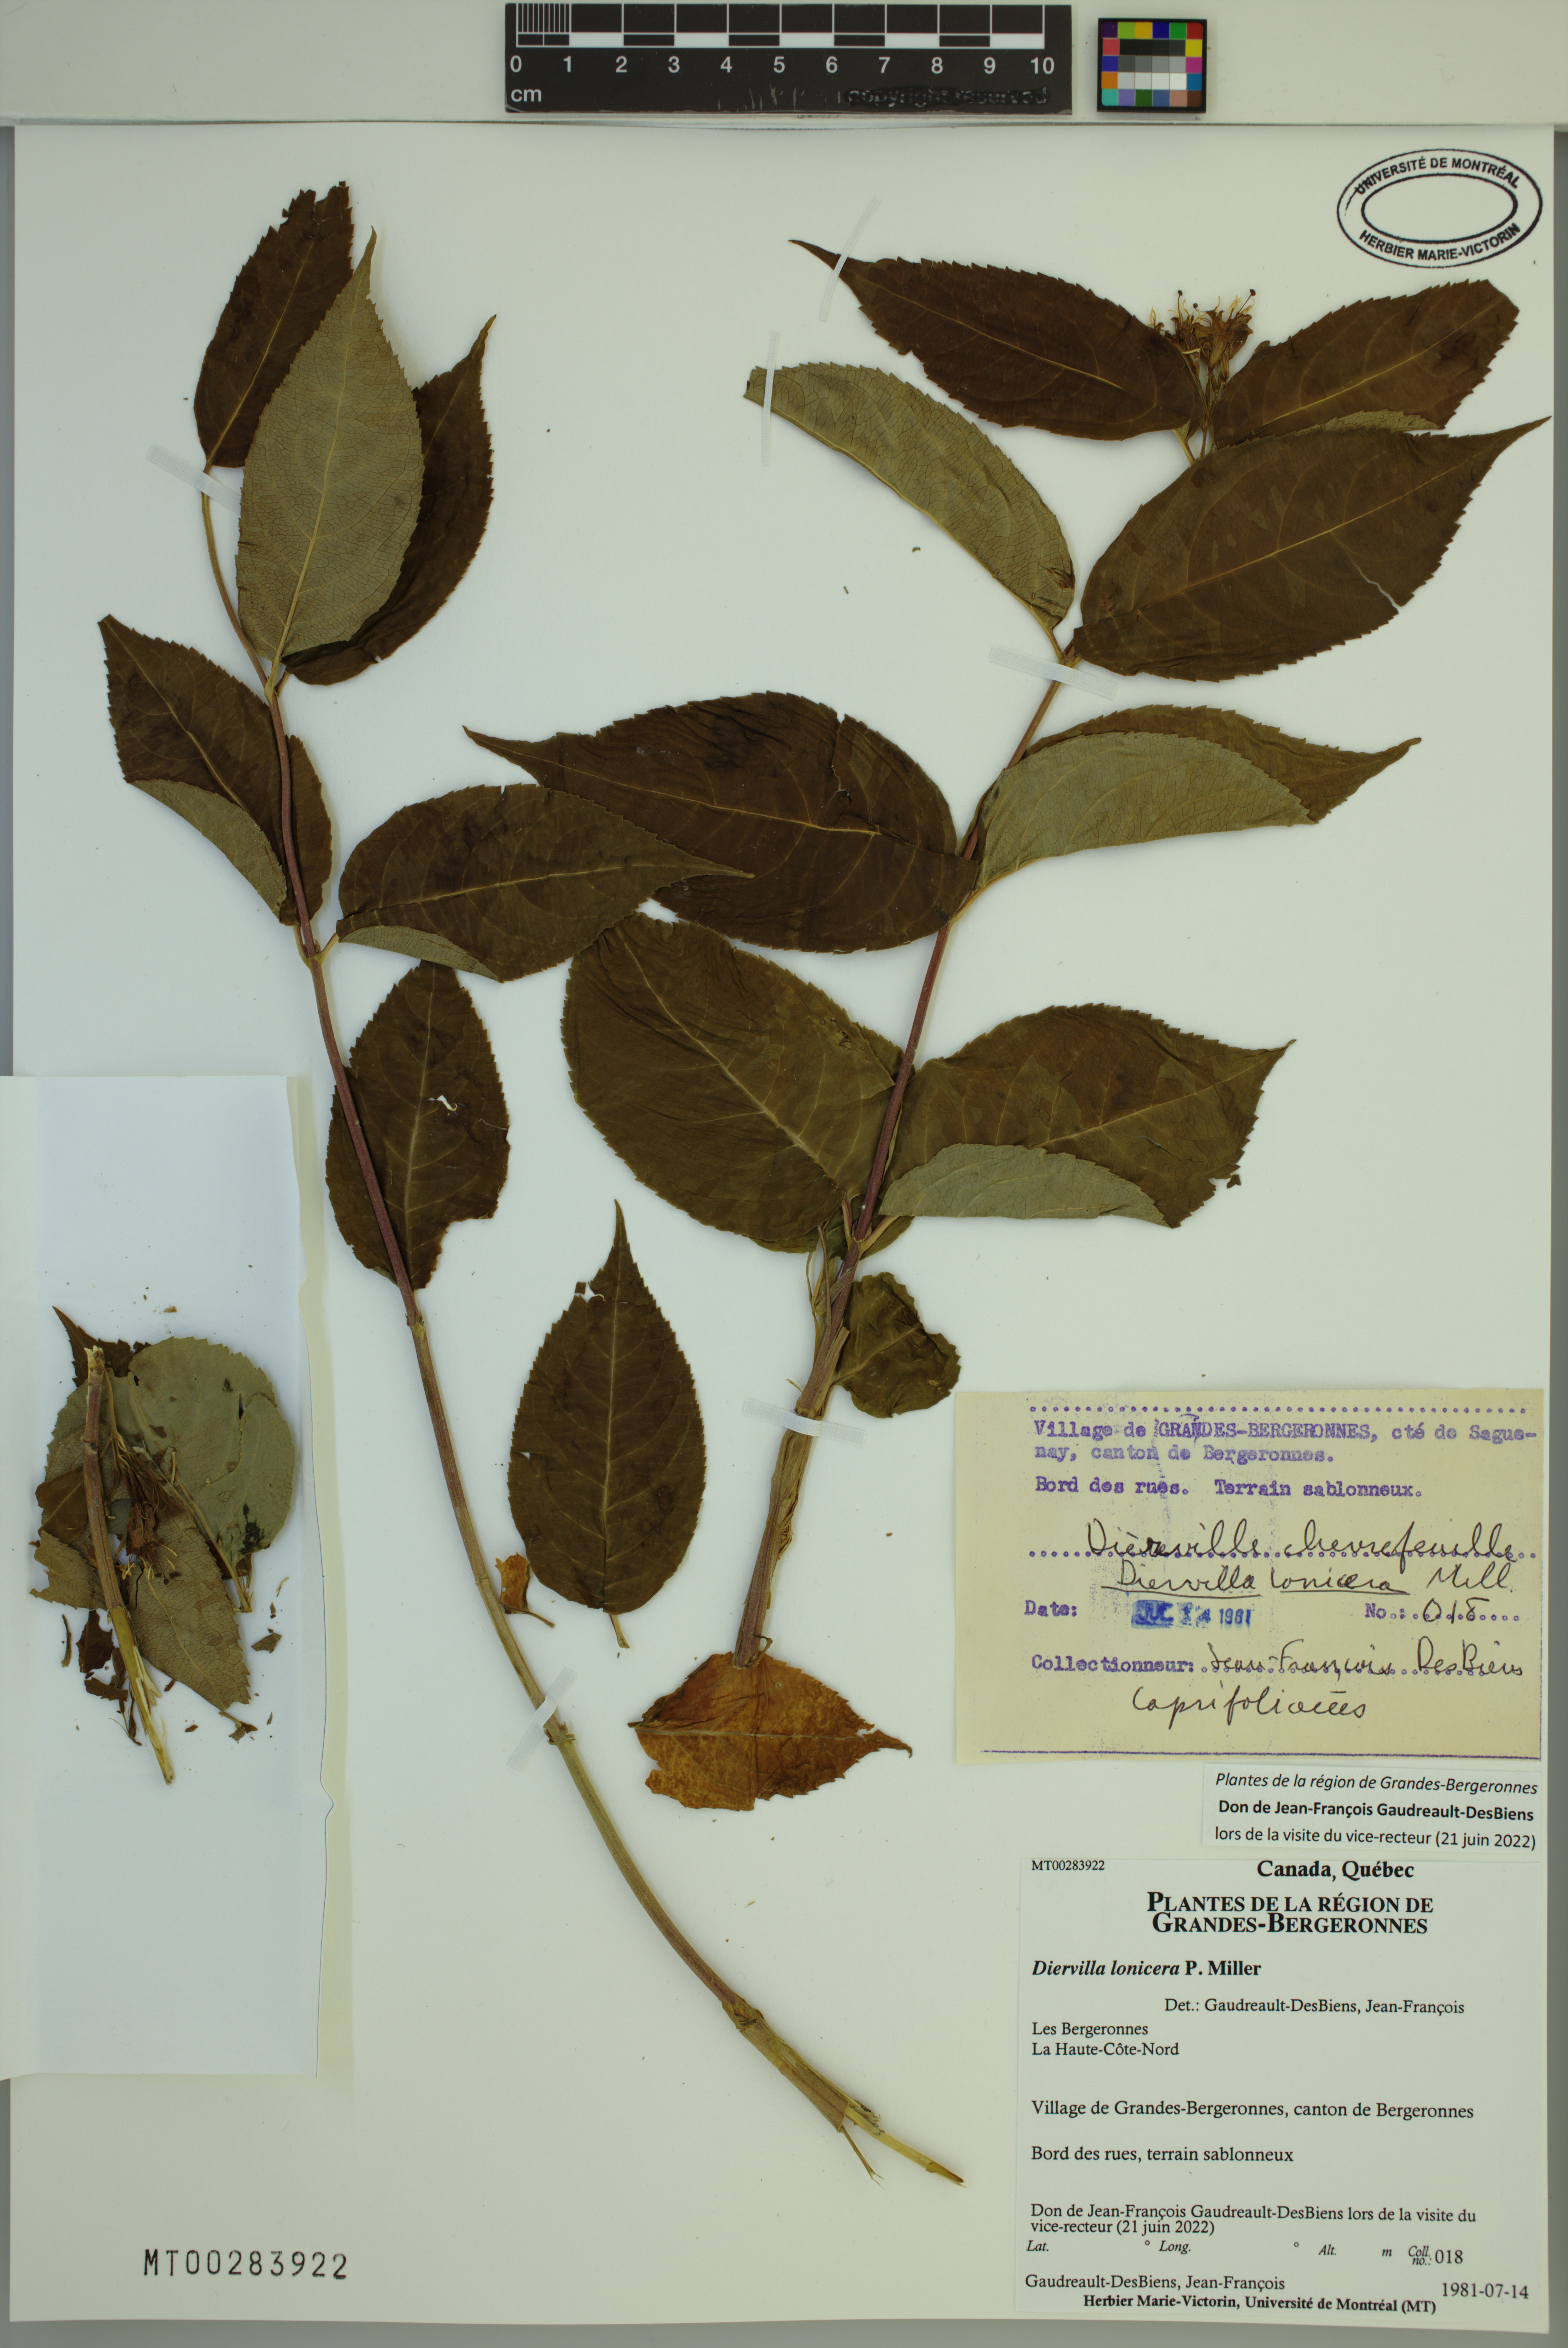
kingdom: Plantae
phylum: Tracheophyta
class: Magnoliopsida
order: Dipsacales
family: Caprifoliaceae
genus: Diervilla
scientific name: Diervilla lonicera
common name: Bush-honeysuckle
